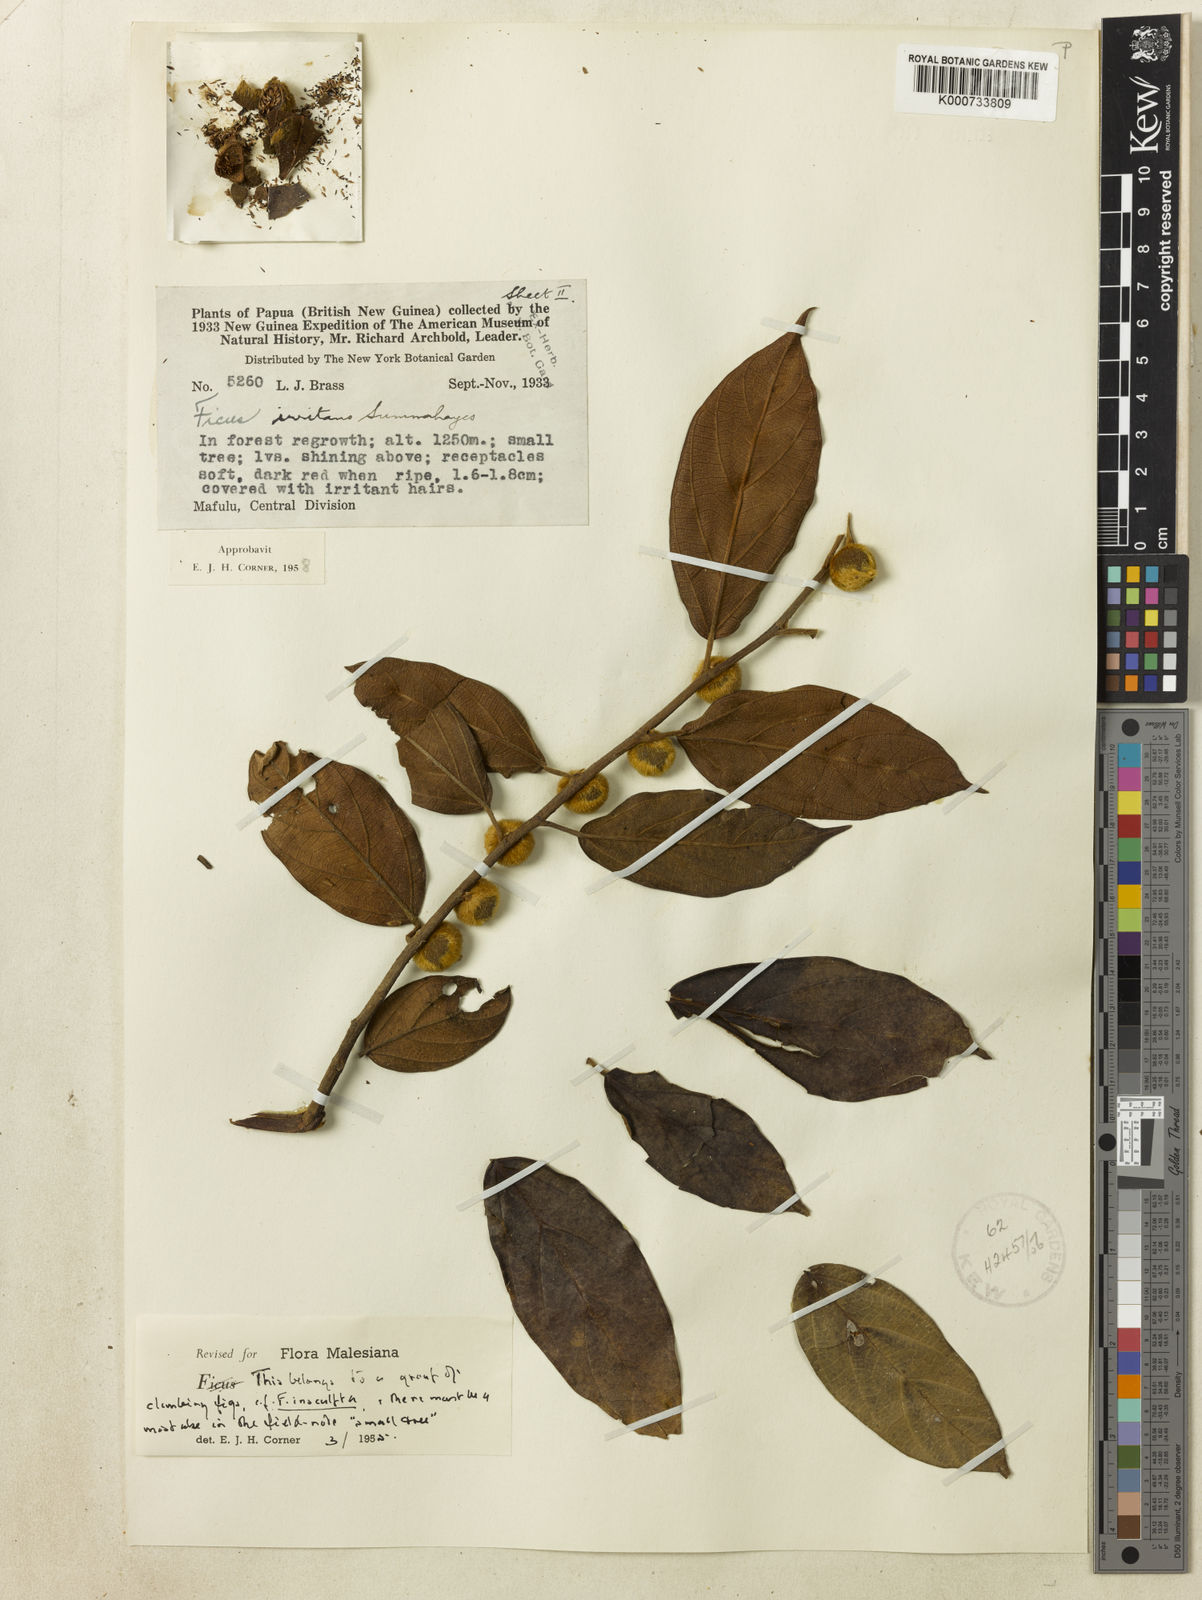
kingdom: Plantae
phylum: Tracheophyta
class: Magnoliopsida
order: Rosales
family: Moraceae
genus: Ficus
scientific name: Ficus odoardi
